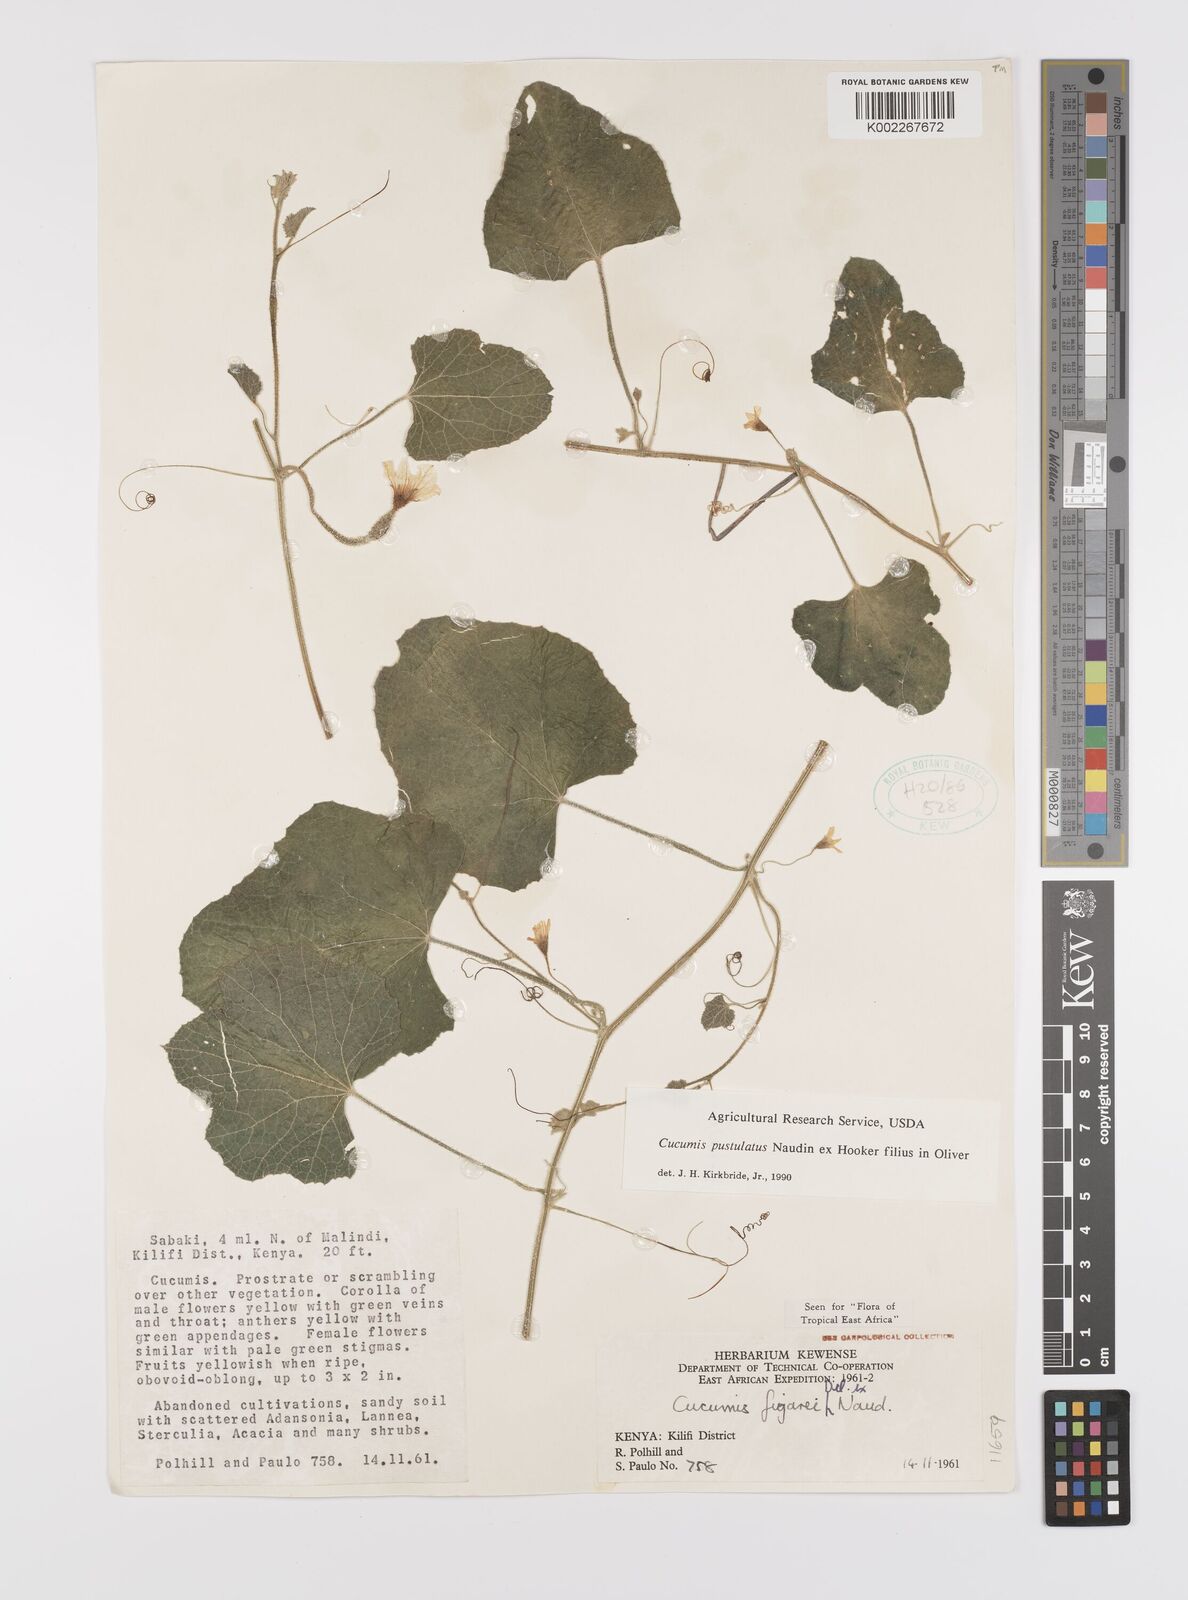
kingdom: Plantae
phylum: Tracheophyta
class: Magnoliopsida
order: Cucurbitales
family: Cucurbitaceae
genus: Cucumis
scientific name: Cucumis
